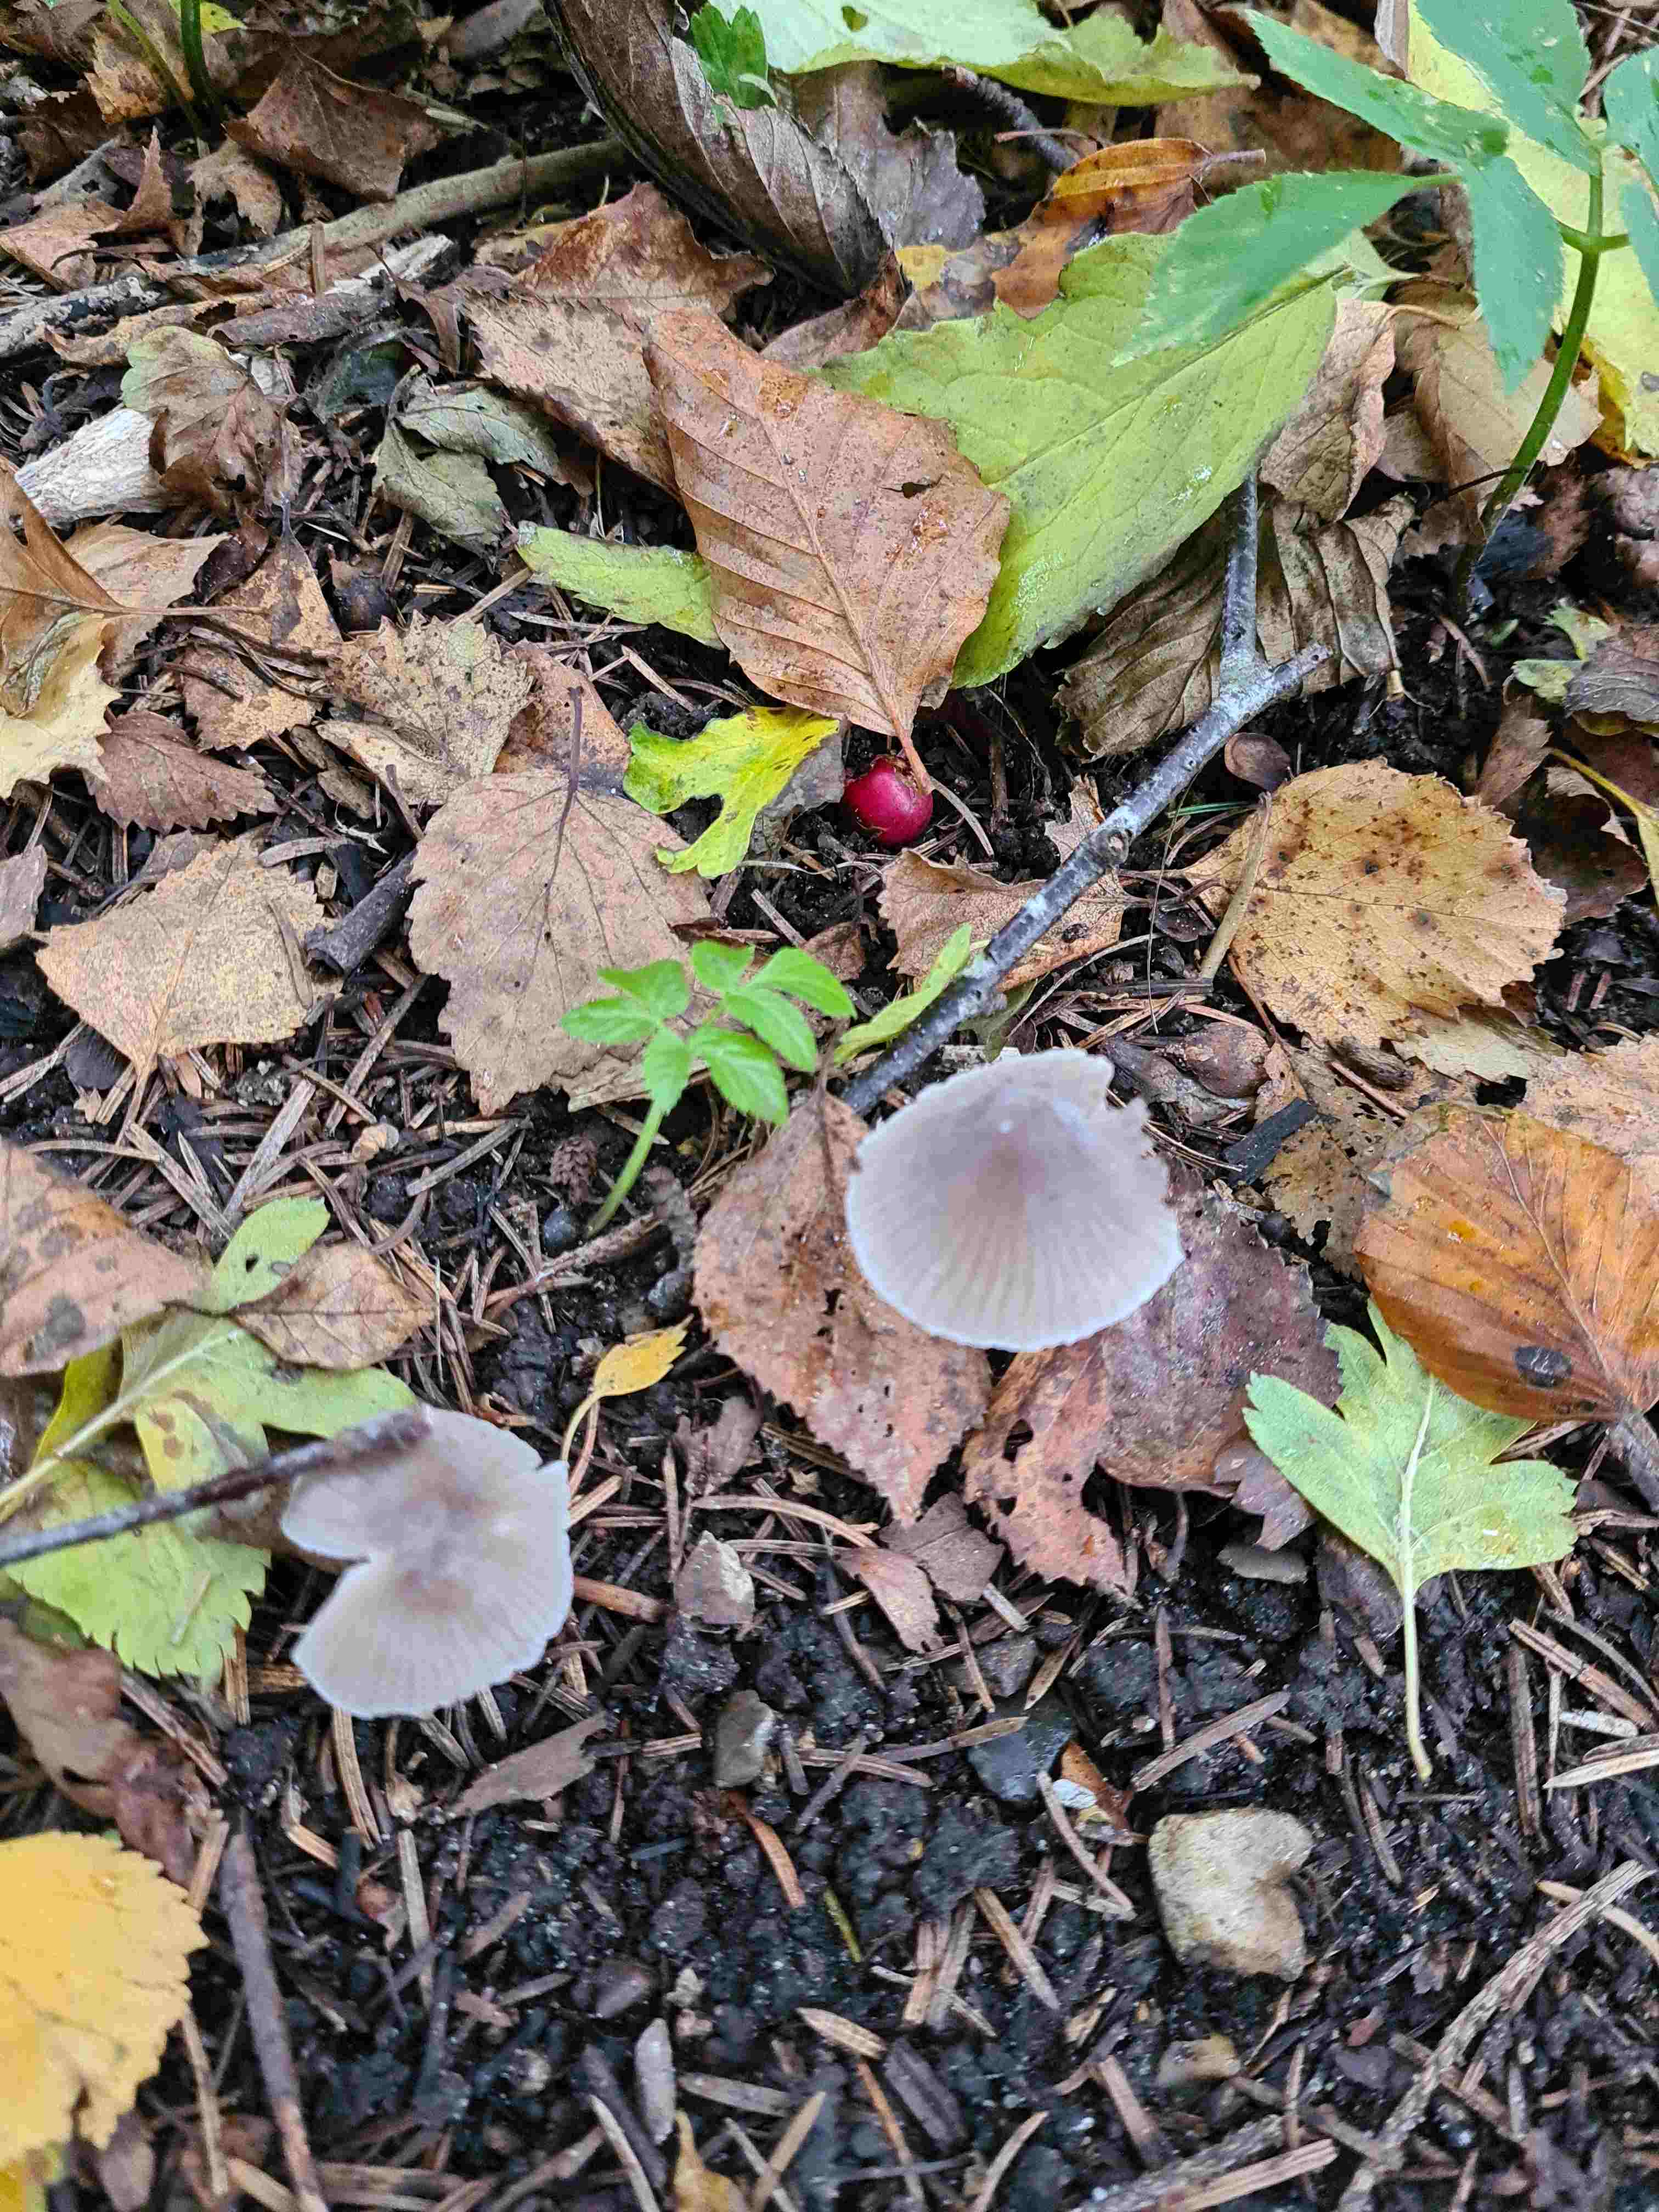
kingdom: Fungi
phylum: Basidiomycota
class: Agaricomycetes
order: Agaricales
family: Mycenaceae
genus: Mycena
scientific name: Mycena
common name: huesvamp
